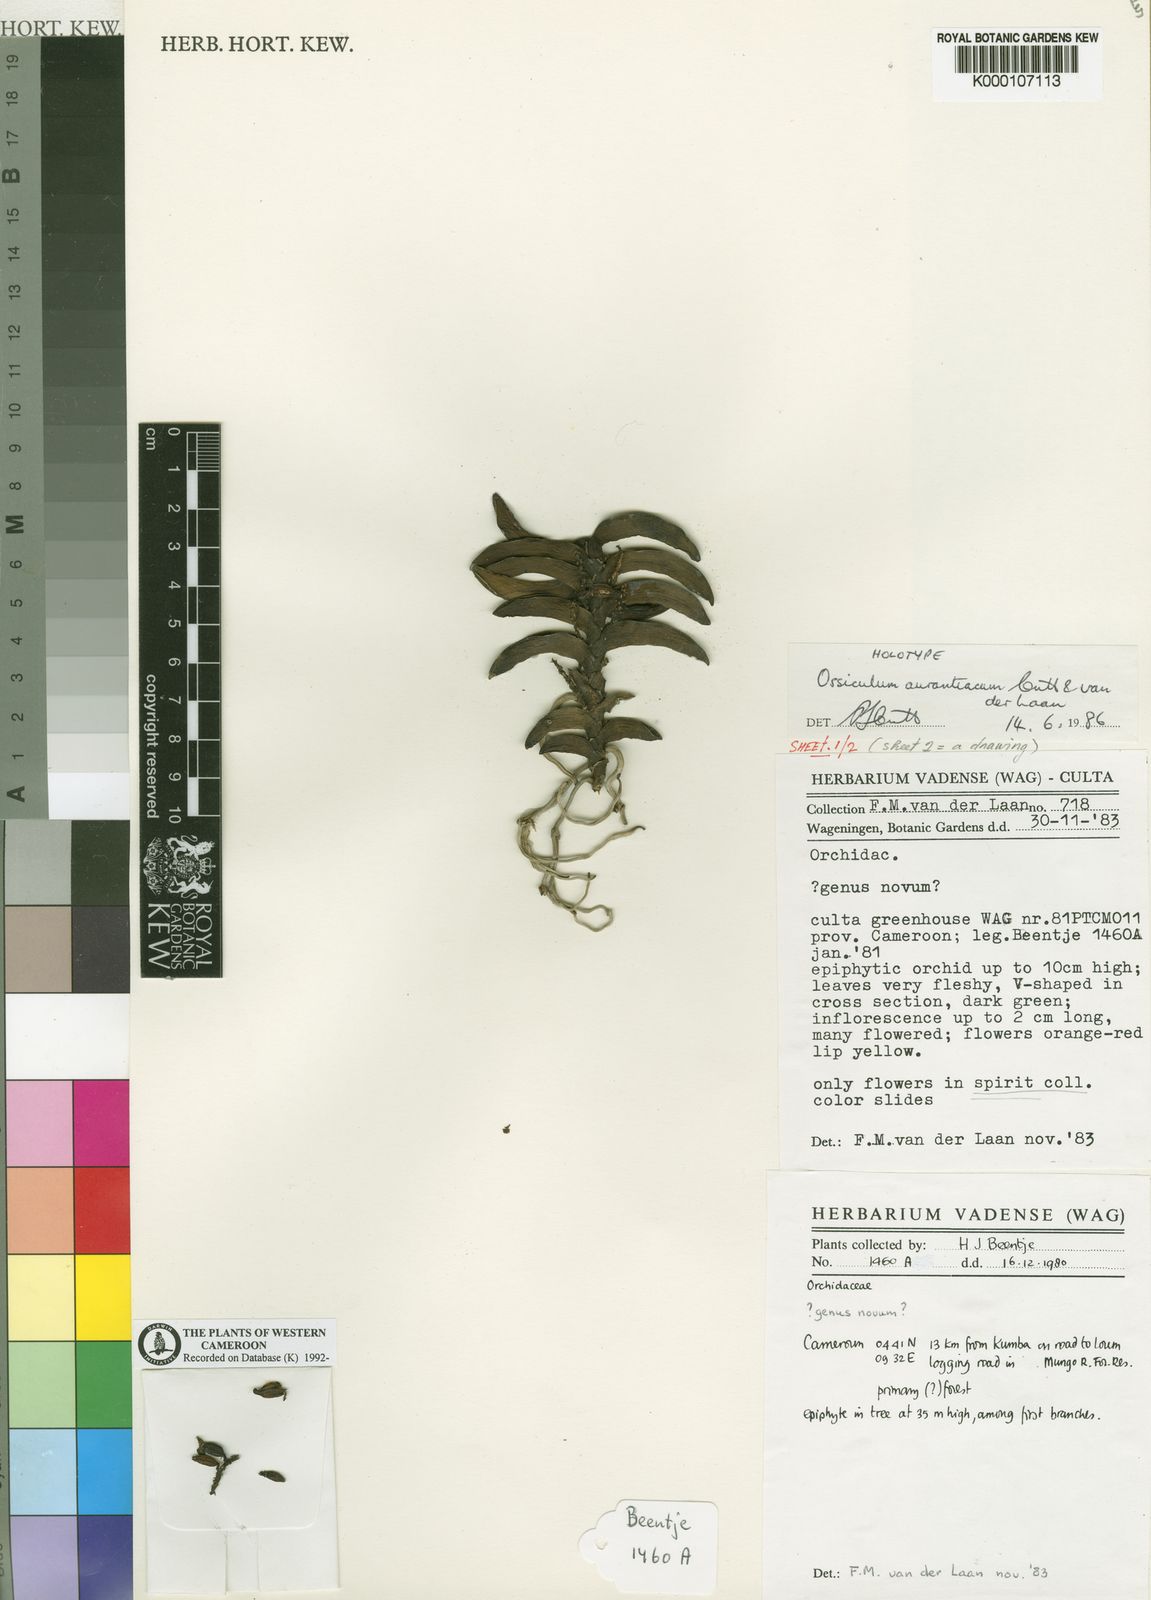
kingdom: Plantae
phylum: Tracheophyta
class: Liliopsida
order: Asparagales
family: Orchidaceae
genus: Calyptrochilum
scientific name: Calyptrochilum aurantiacum
